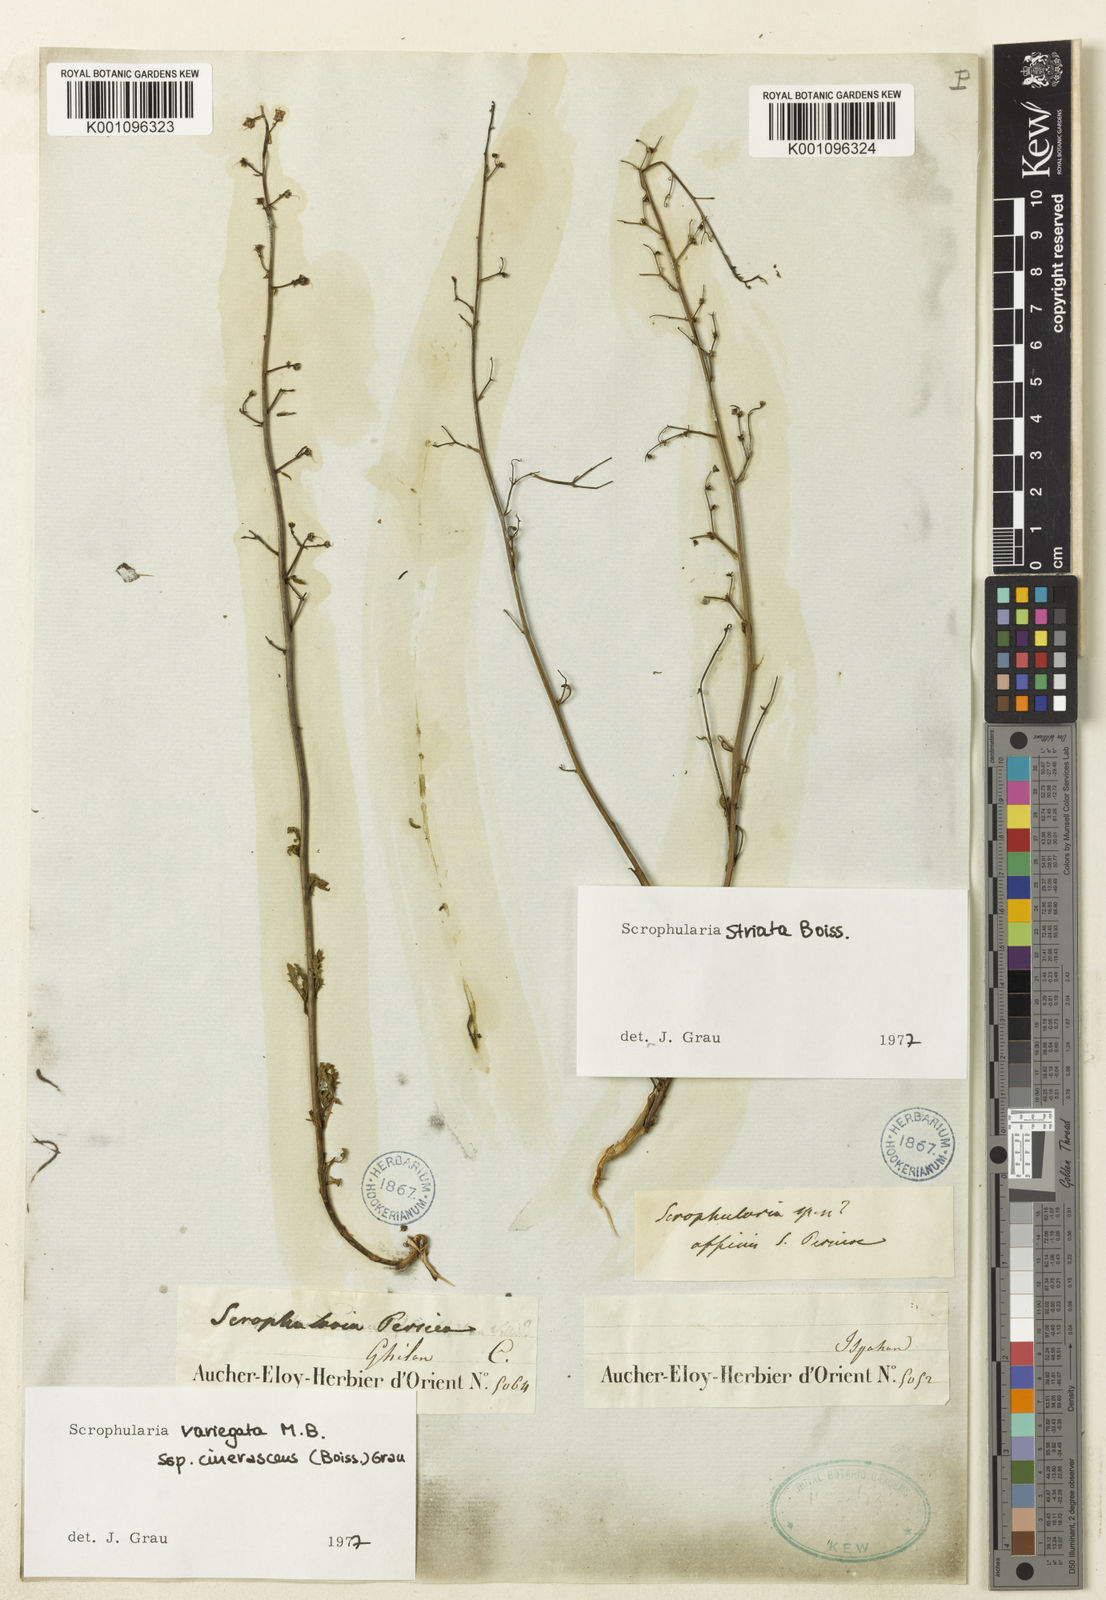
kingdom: Plantae
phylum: Tracheophyta
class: Magnoliopsida
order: Lamiales
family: Scrophulariaceae
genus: Scrophularia
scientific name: Scrophularia versicolor
